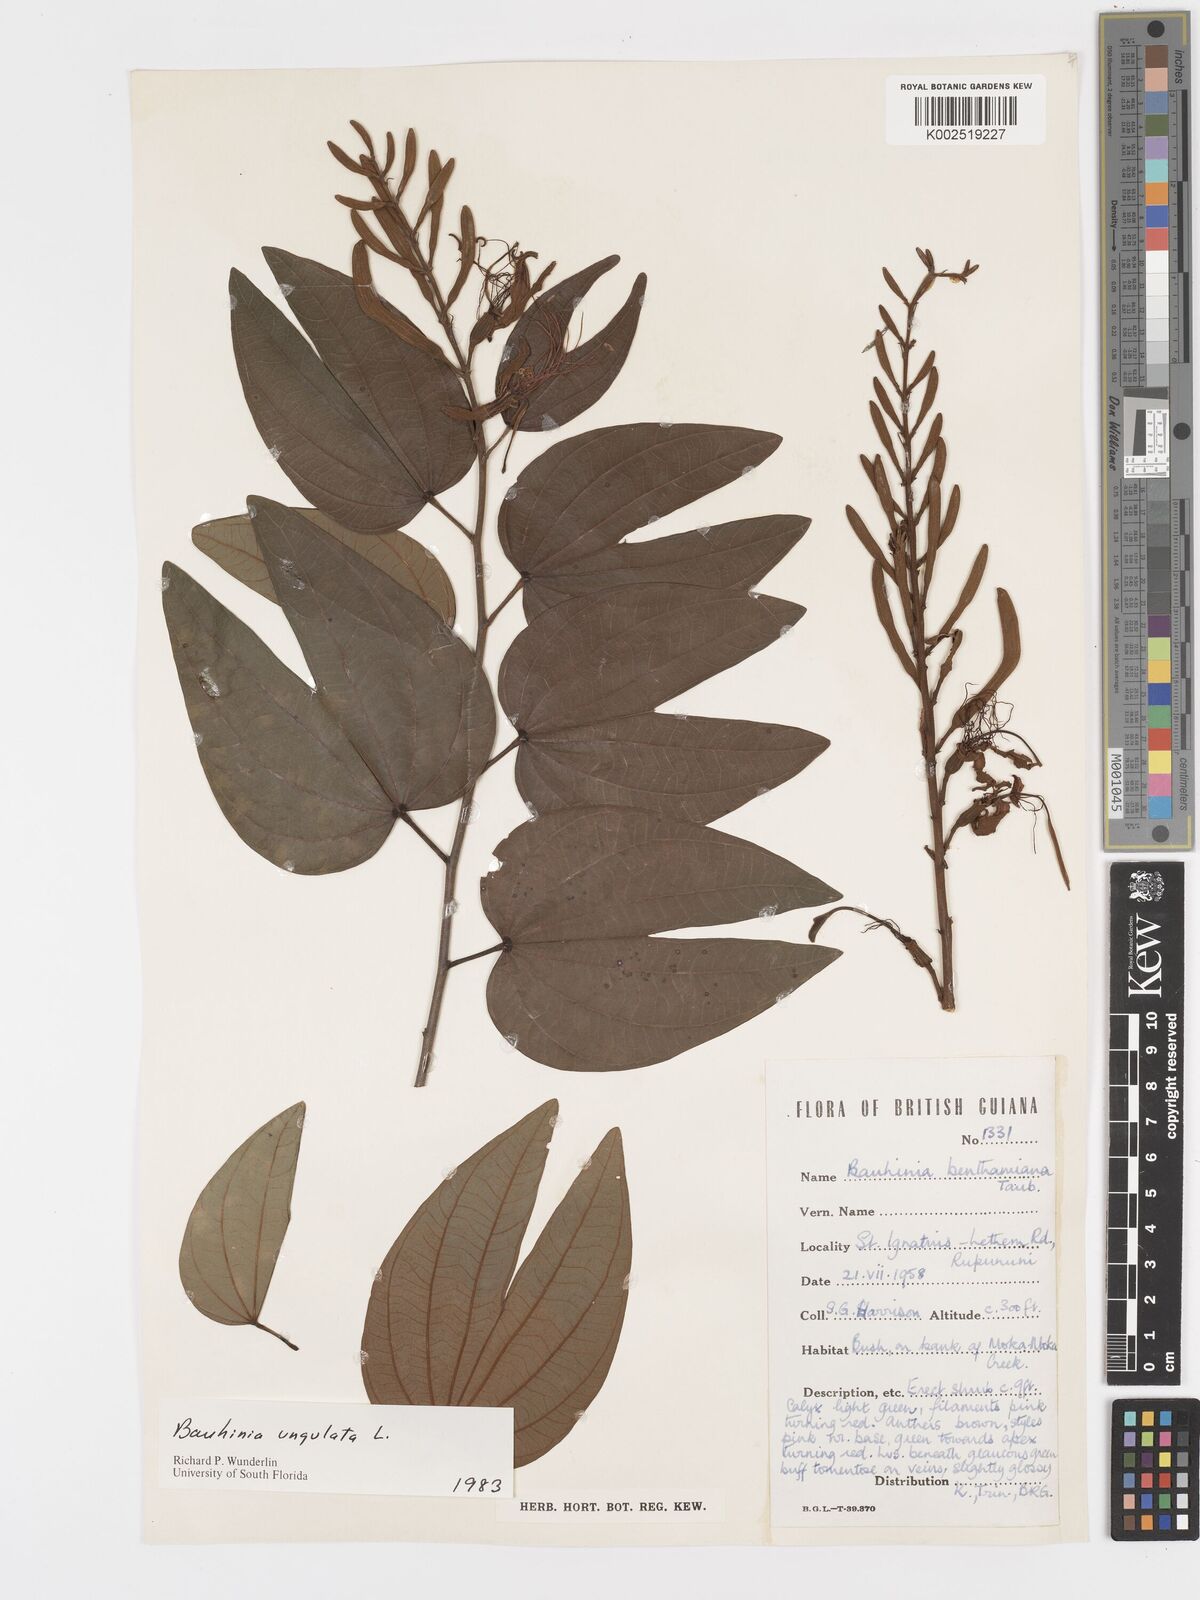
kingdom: Plantae
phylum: Tracheophyta
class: Magnoliopsida
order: Fabales
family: Fabaceae
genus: Bauhinia
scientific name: Bauhinia ungulata
